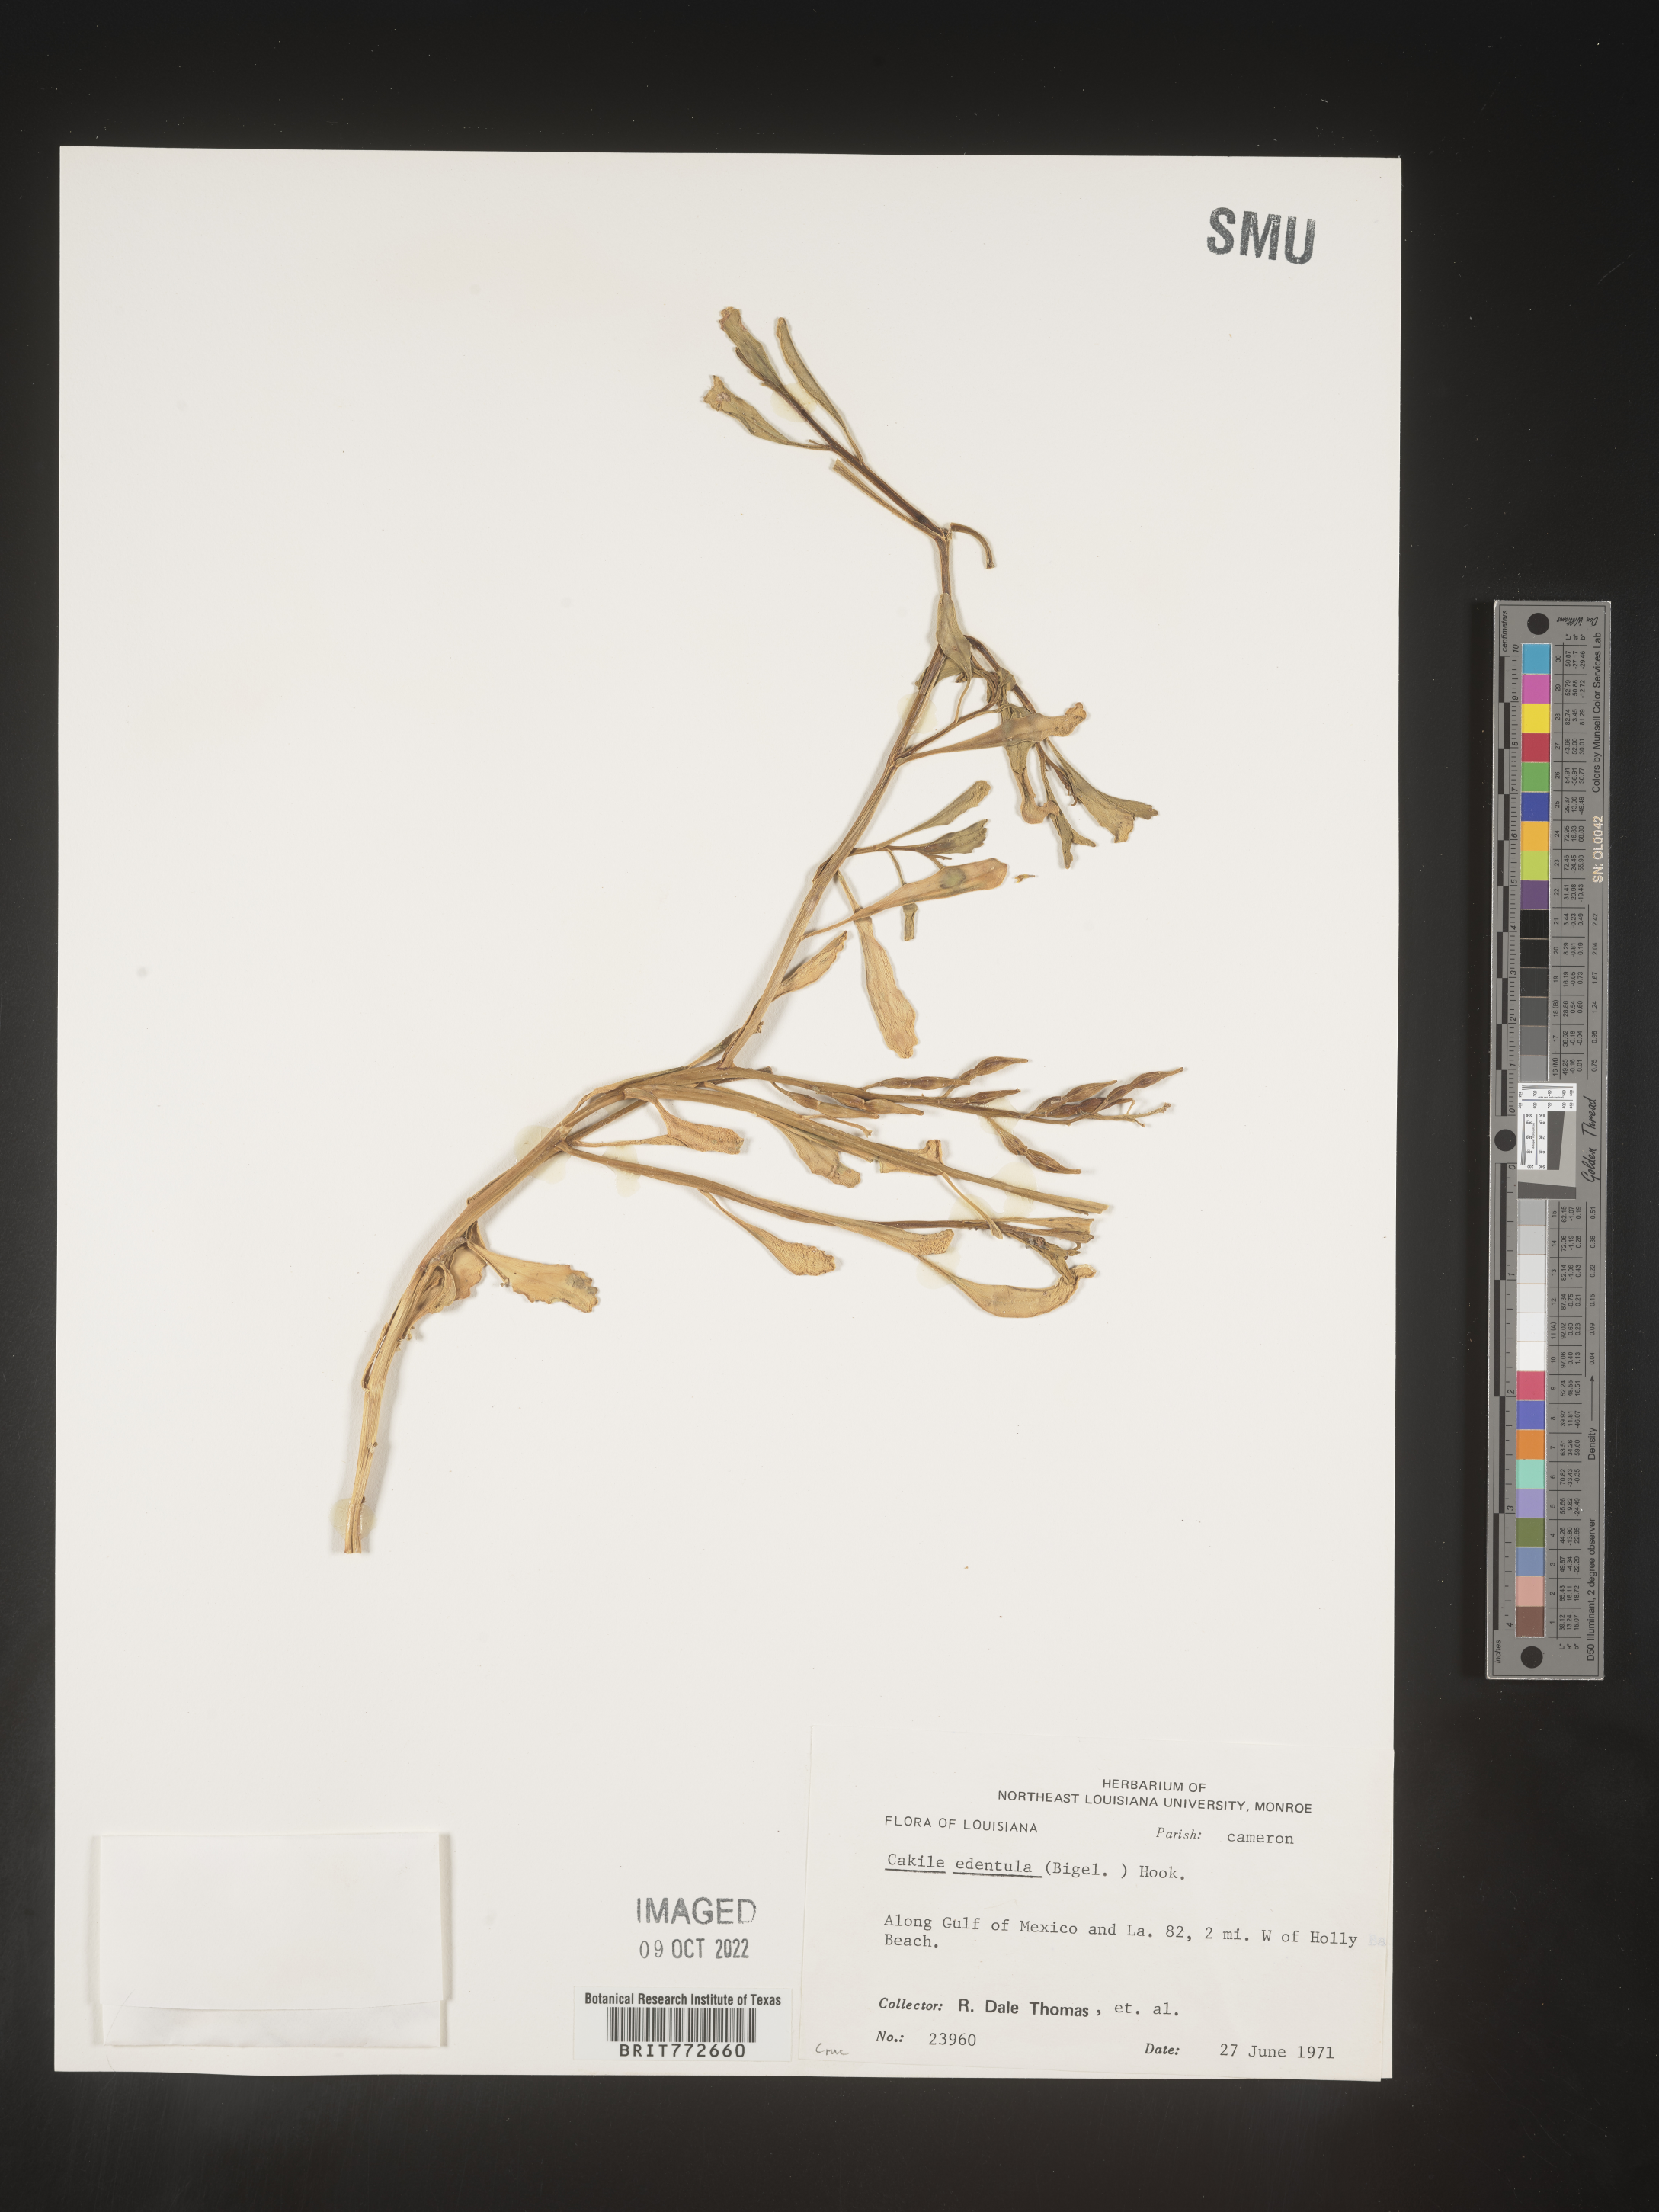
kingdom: Plantae
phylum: Tracheophyta
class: Magnoliopsida
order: Brassicales
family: Brassicaceae
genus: Cakile
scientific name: Cakile edentula
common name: American sea rocket
